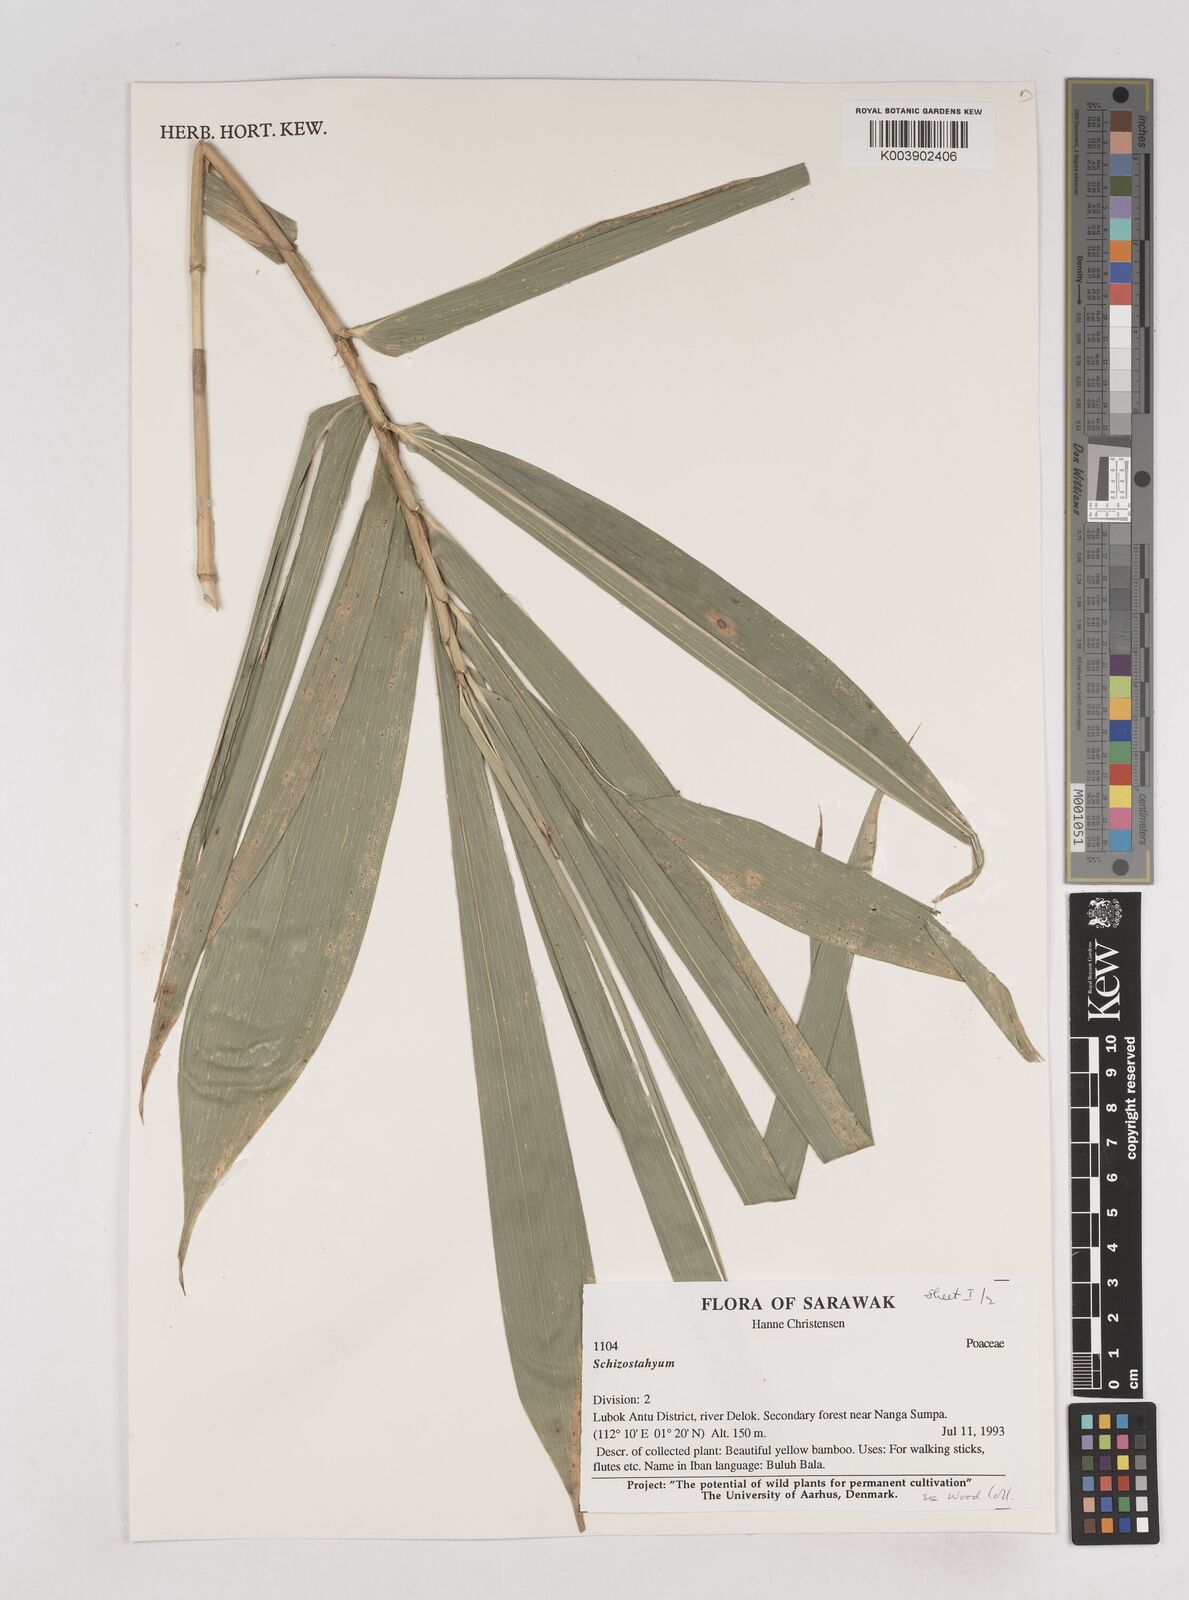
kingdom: Plantae
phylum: Tracheophyta
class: Liliopsida
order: Poales
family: Poaceae
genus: Schizostachyum
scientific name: Schizostachyum
